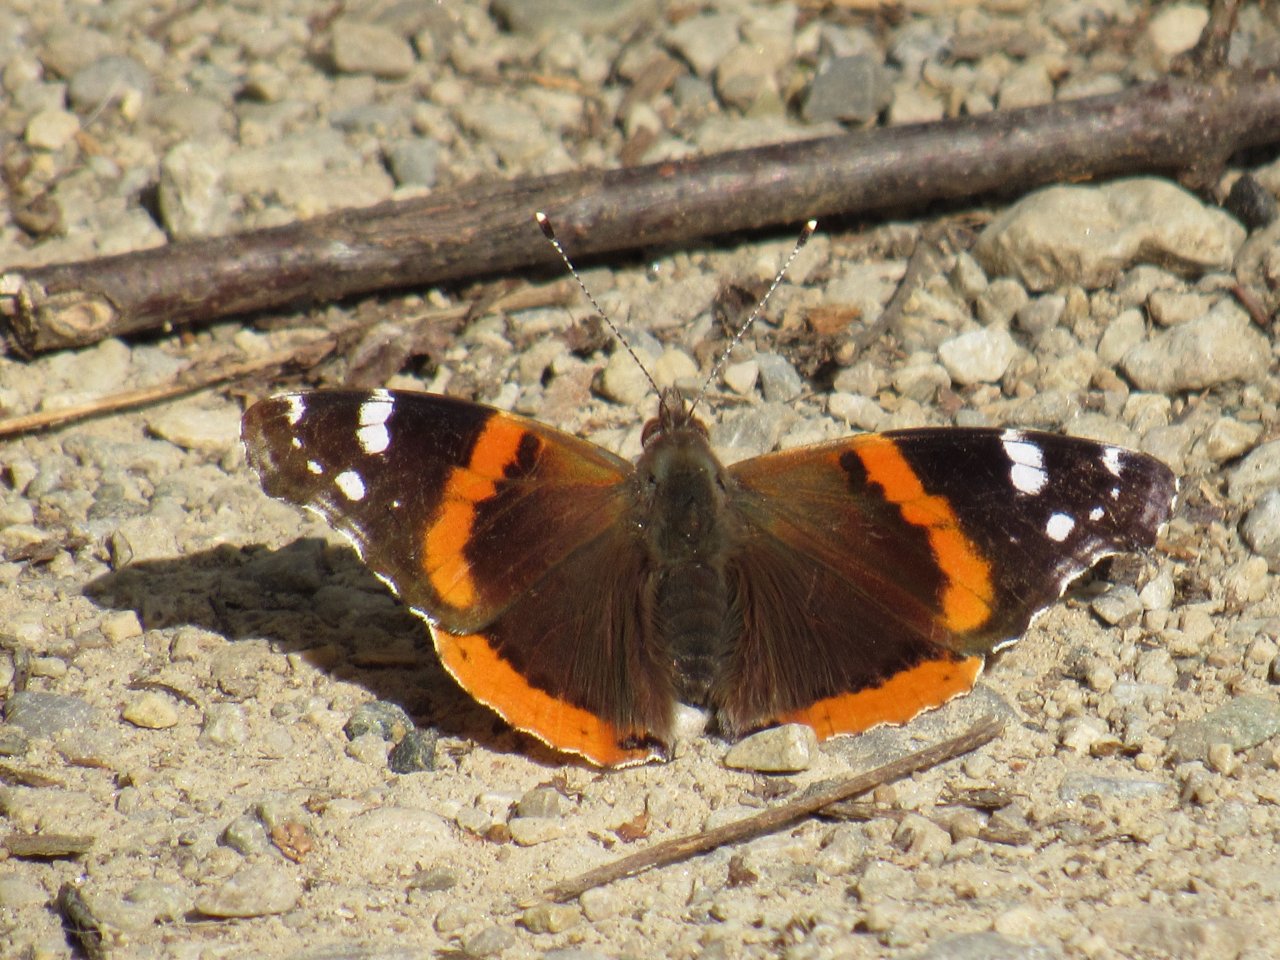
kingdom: Animalia
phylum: Arthropoda
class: Insecta
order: Lepidoptera
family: Nymphalidae
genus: Vanessa
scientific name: Vanessa atalanta
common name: Red Admiral
